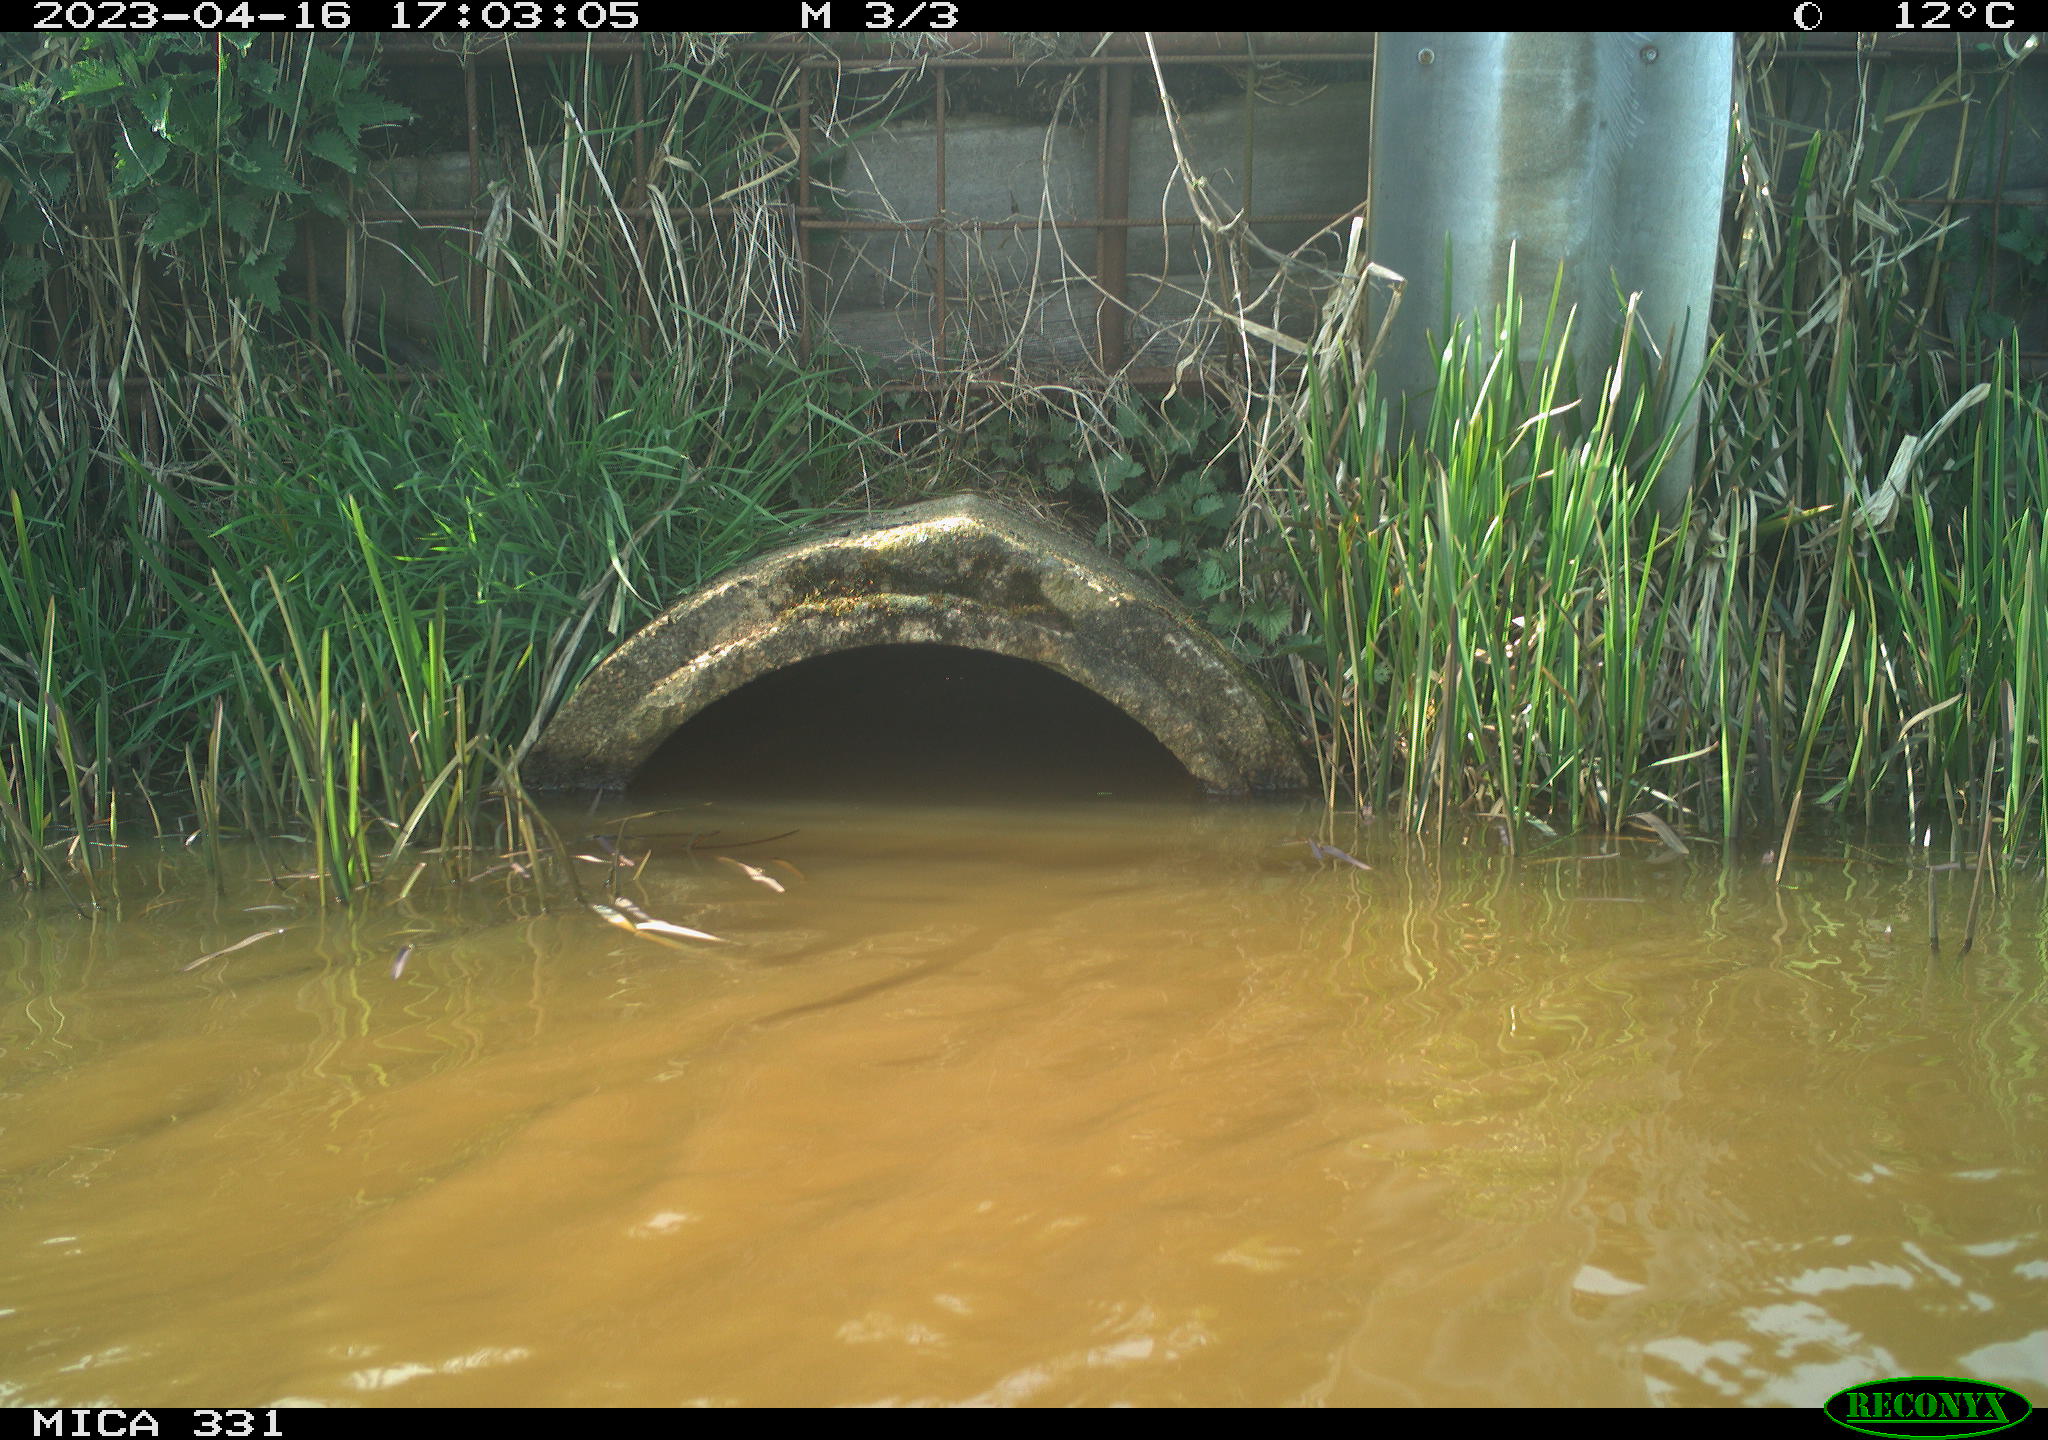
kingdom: Animalia
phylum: Chordata
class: Aves
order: Gruiformes
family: Rallidae
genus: Fulica
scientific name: Fulica atra
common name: Eurasian coot
